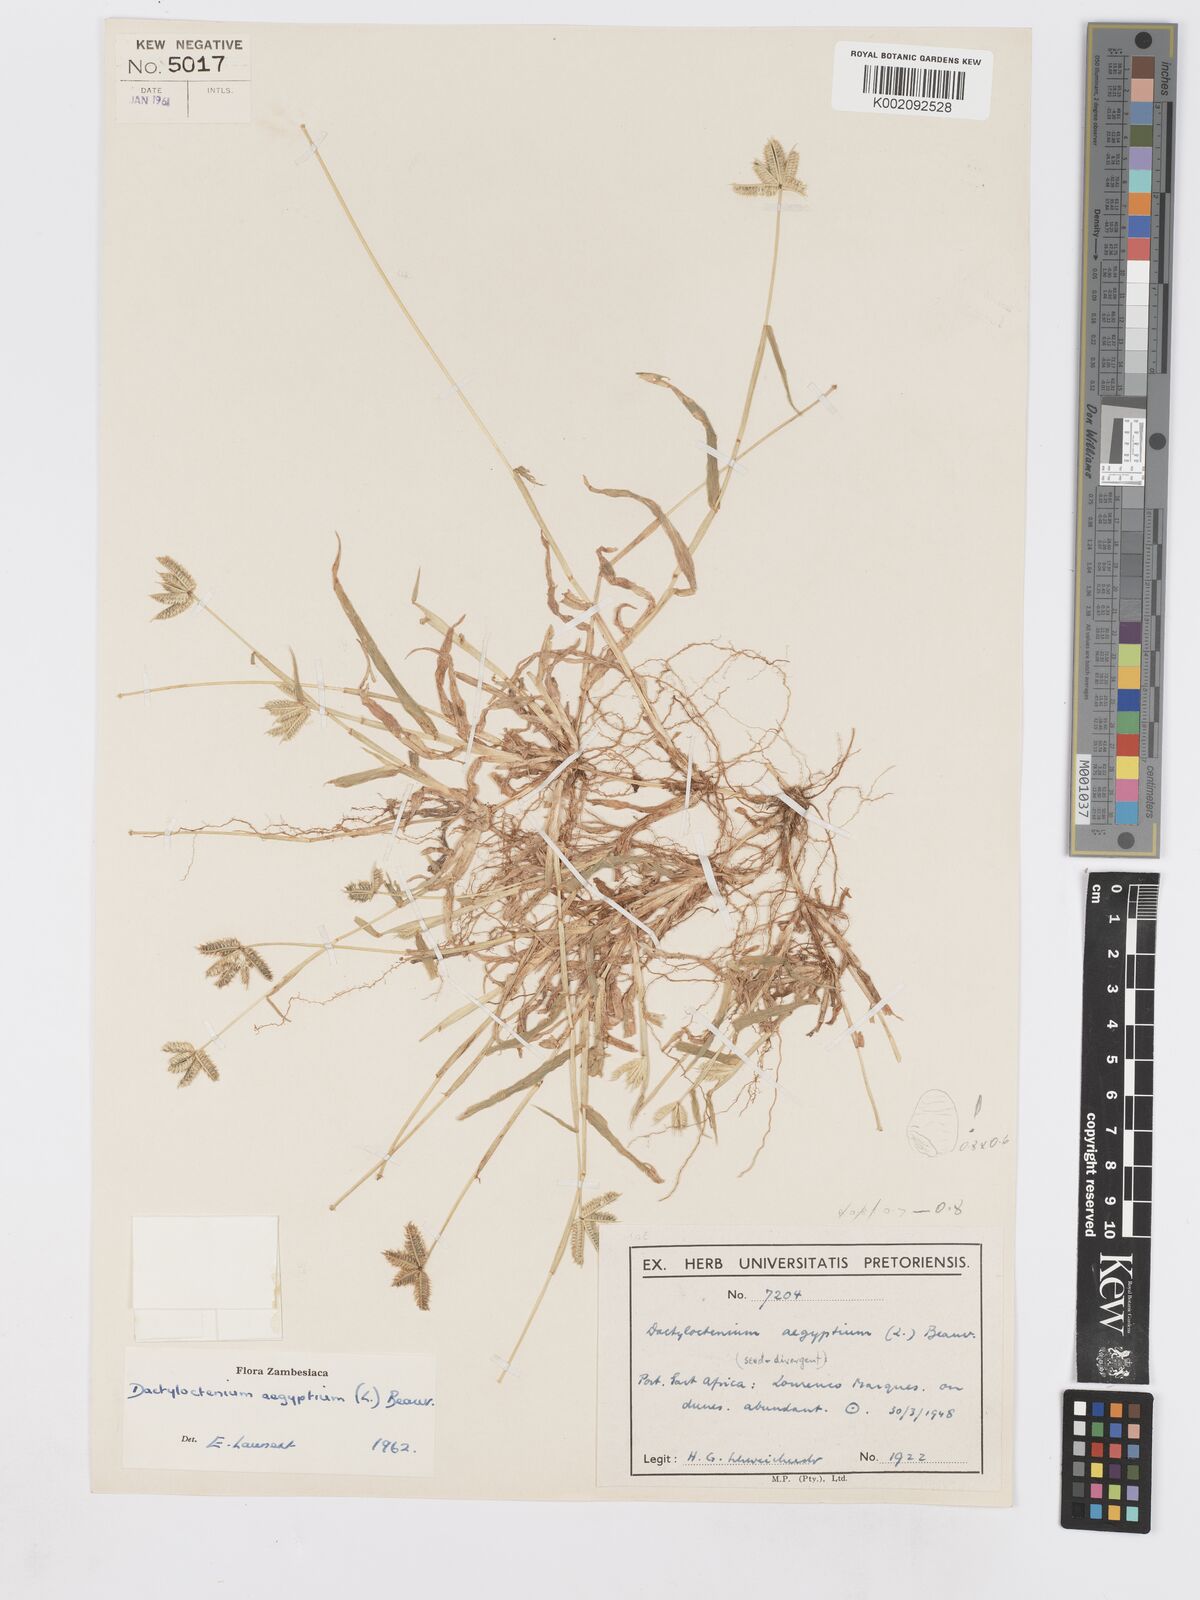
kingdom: Plantae
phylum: Tracheophyta
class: Liliopsida
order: Poales
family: Poaceae
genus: Dactyloctenium
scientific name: Dactyloctenium aegyptium
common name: Egyptian grass
